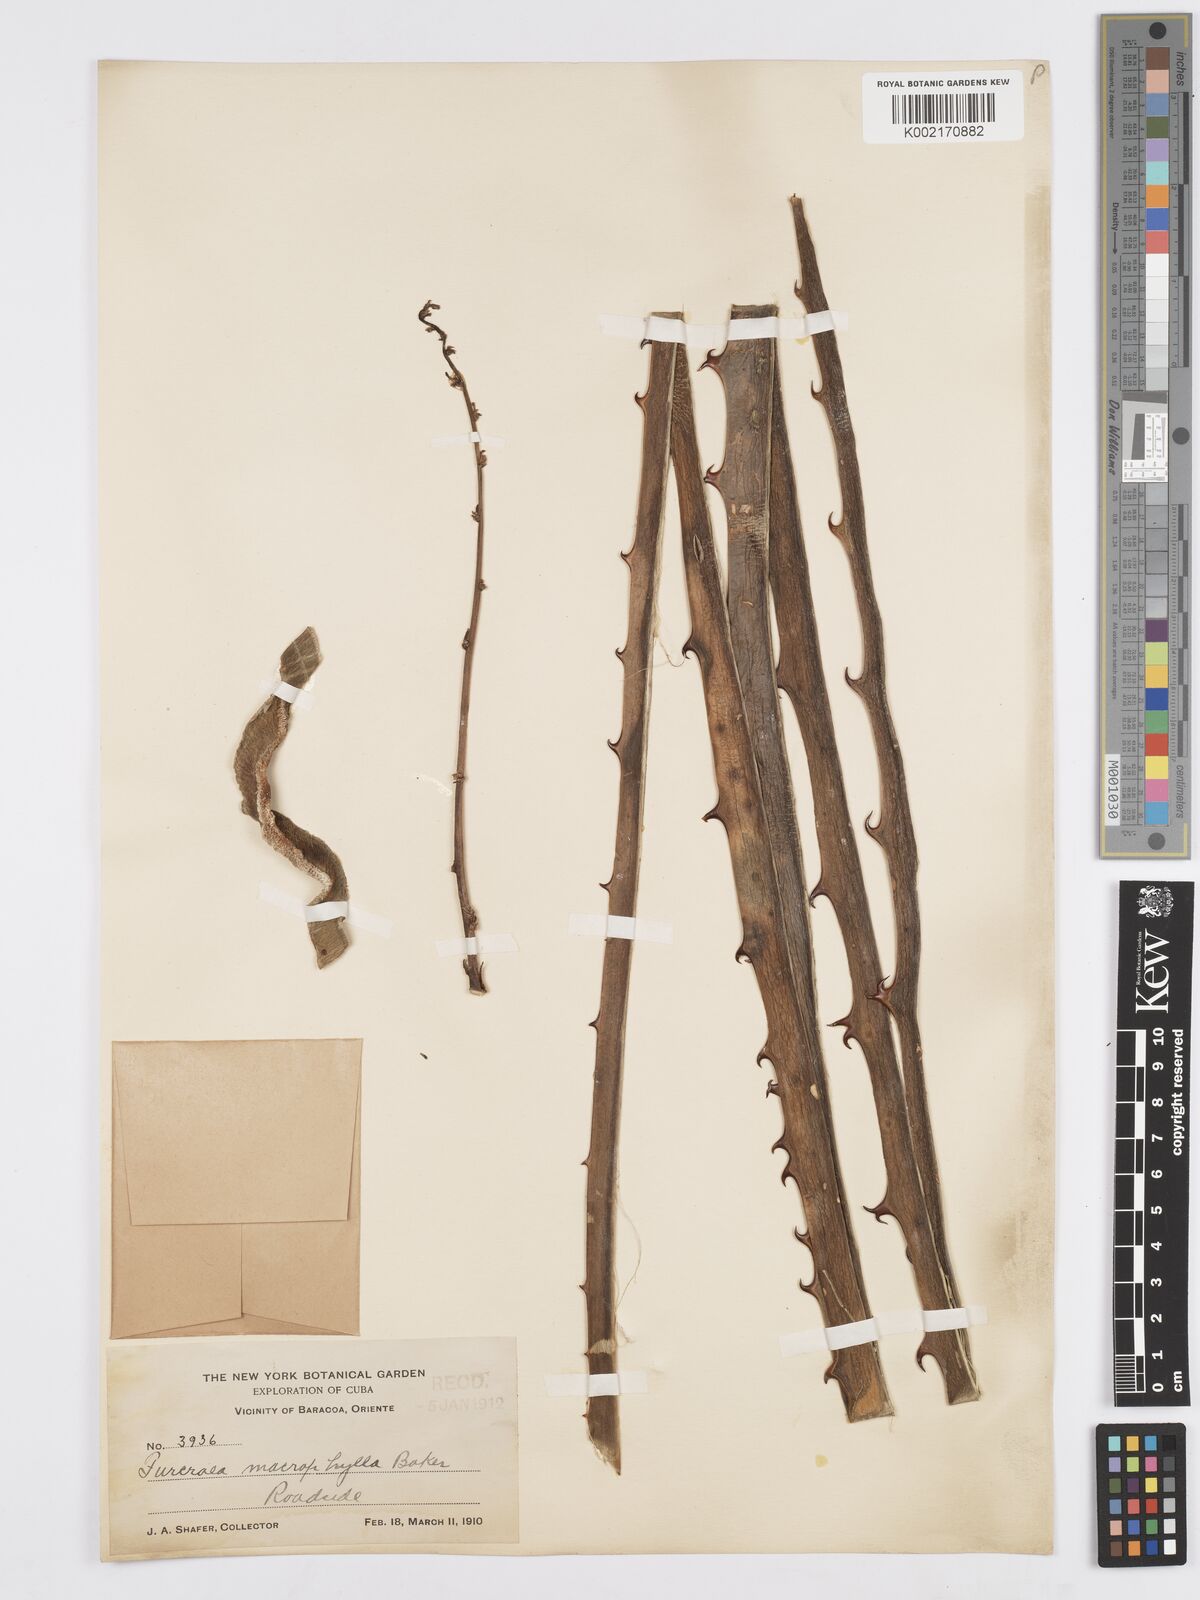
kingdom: Plantae
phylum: Tracheophyta
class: Liliopsida
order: Asparagales
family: Asparagaceae
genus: Furcraea
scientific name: Furcraea hexapetala
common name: Cuban-hemp
